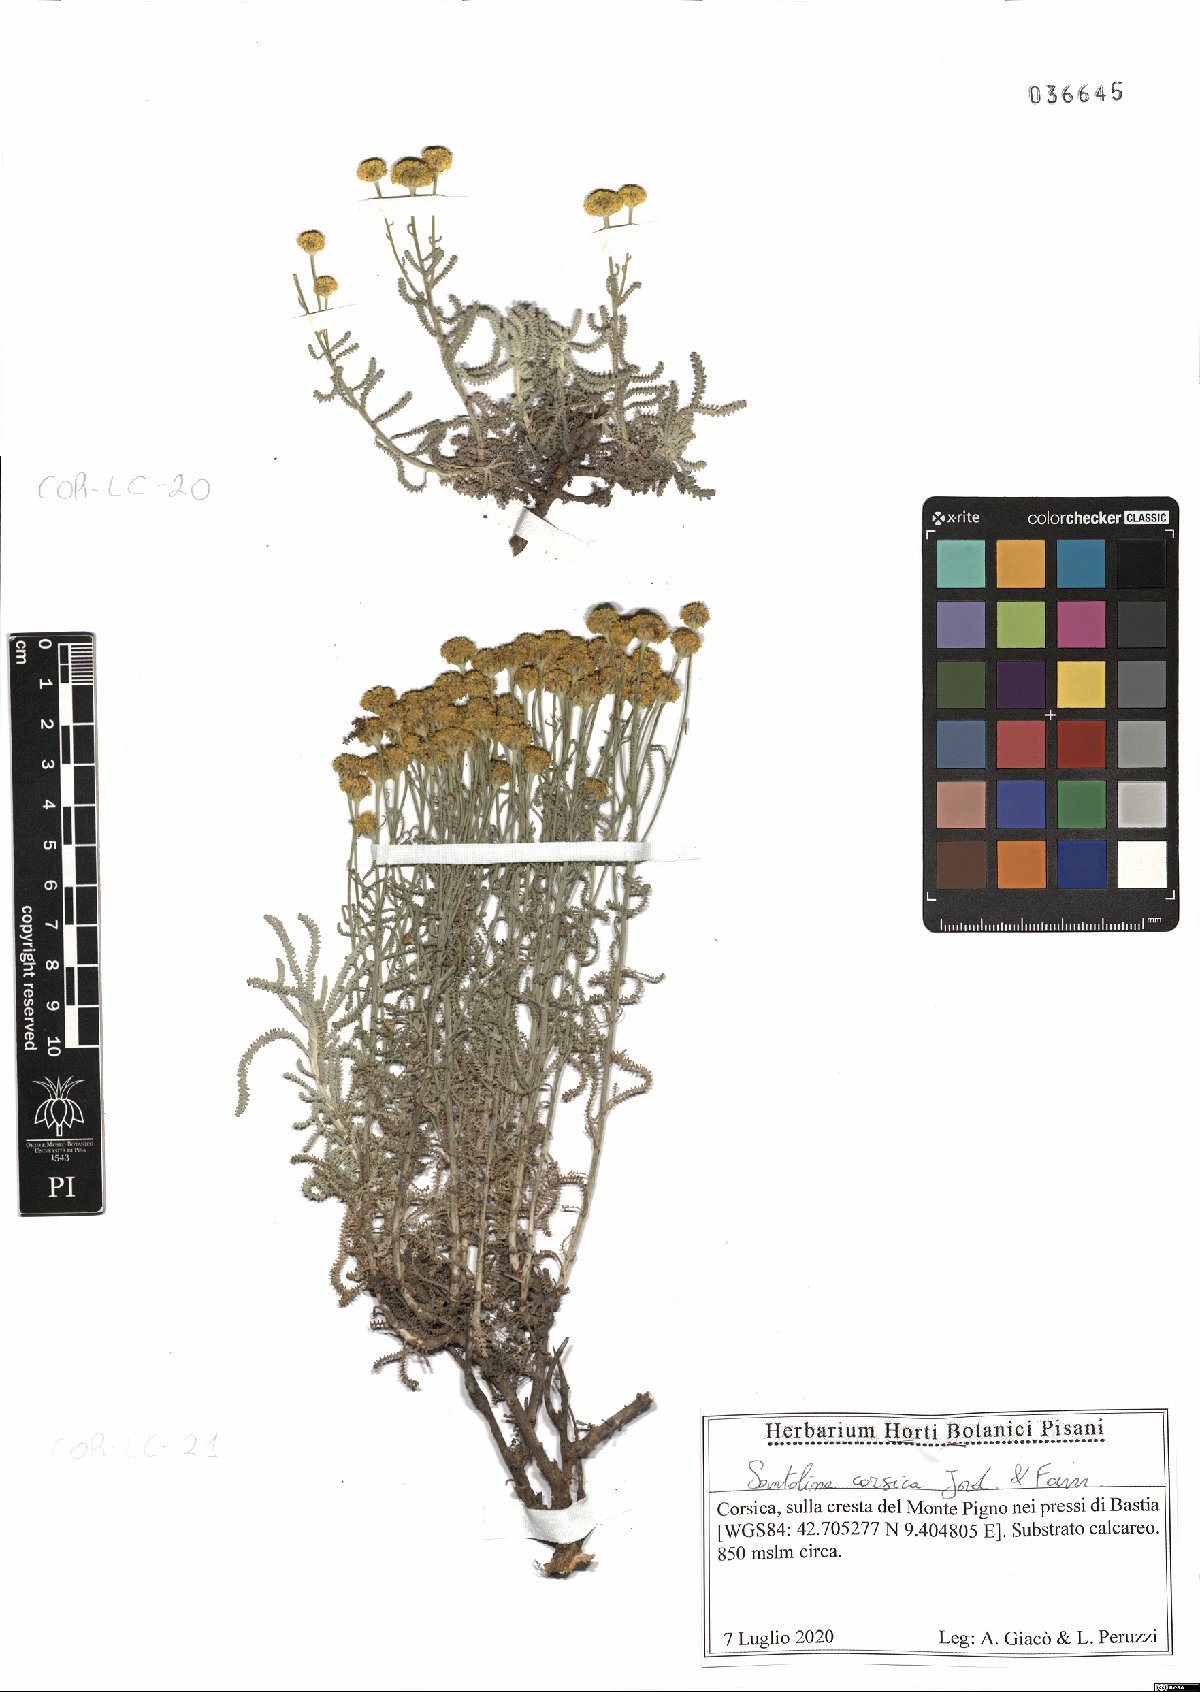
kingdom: Plantae
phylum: Tracheophyta
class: Magnoliopsida
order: Asterales
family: Asteraceae
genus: Santolina
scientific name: Santolina corsica
